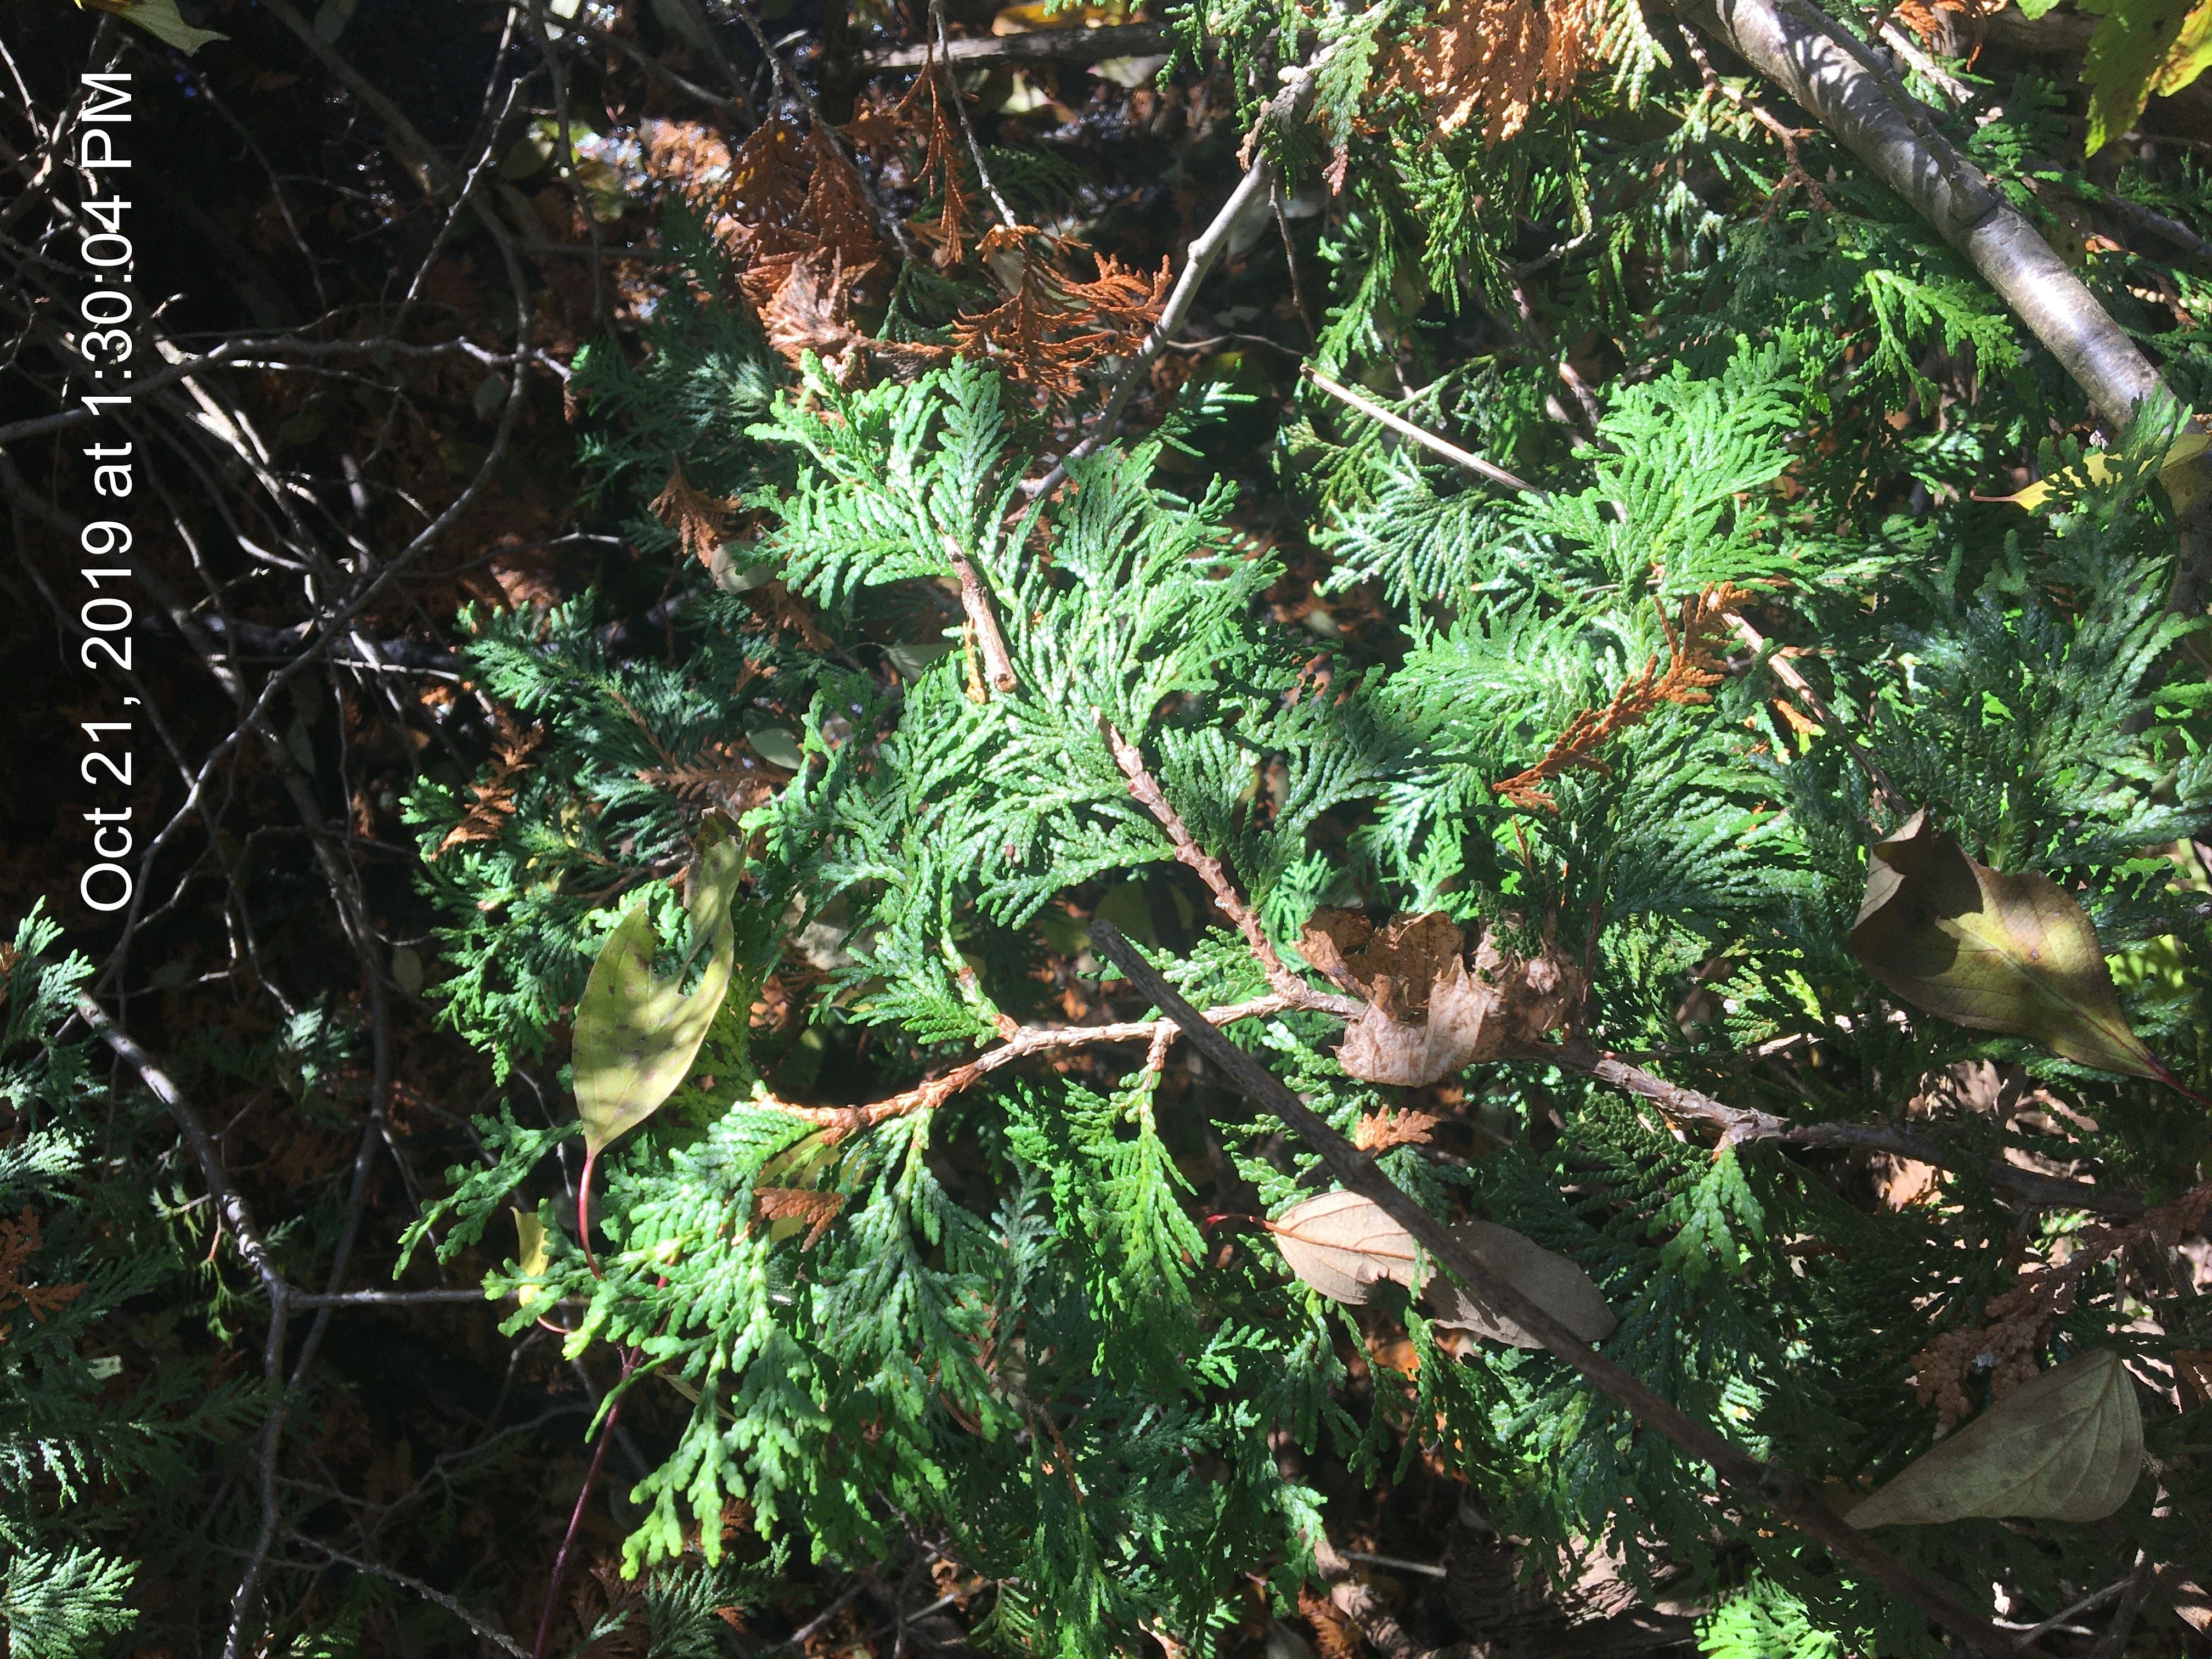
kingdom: Plantae
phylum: Tracheophyta
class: Pinopsida
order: Pinales
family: Cupressaceae
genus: Thuja
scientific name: Thuja occidentalis
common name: arborvitae
